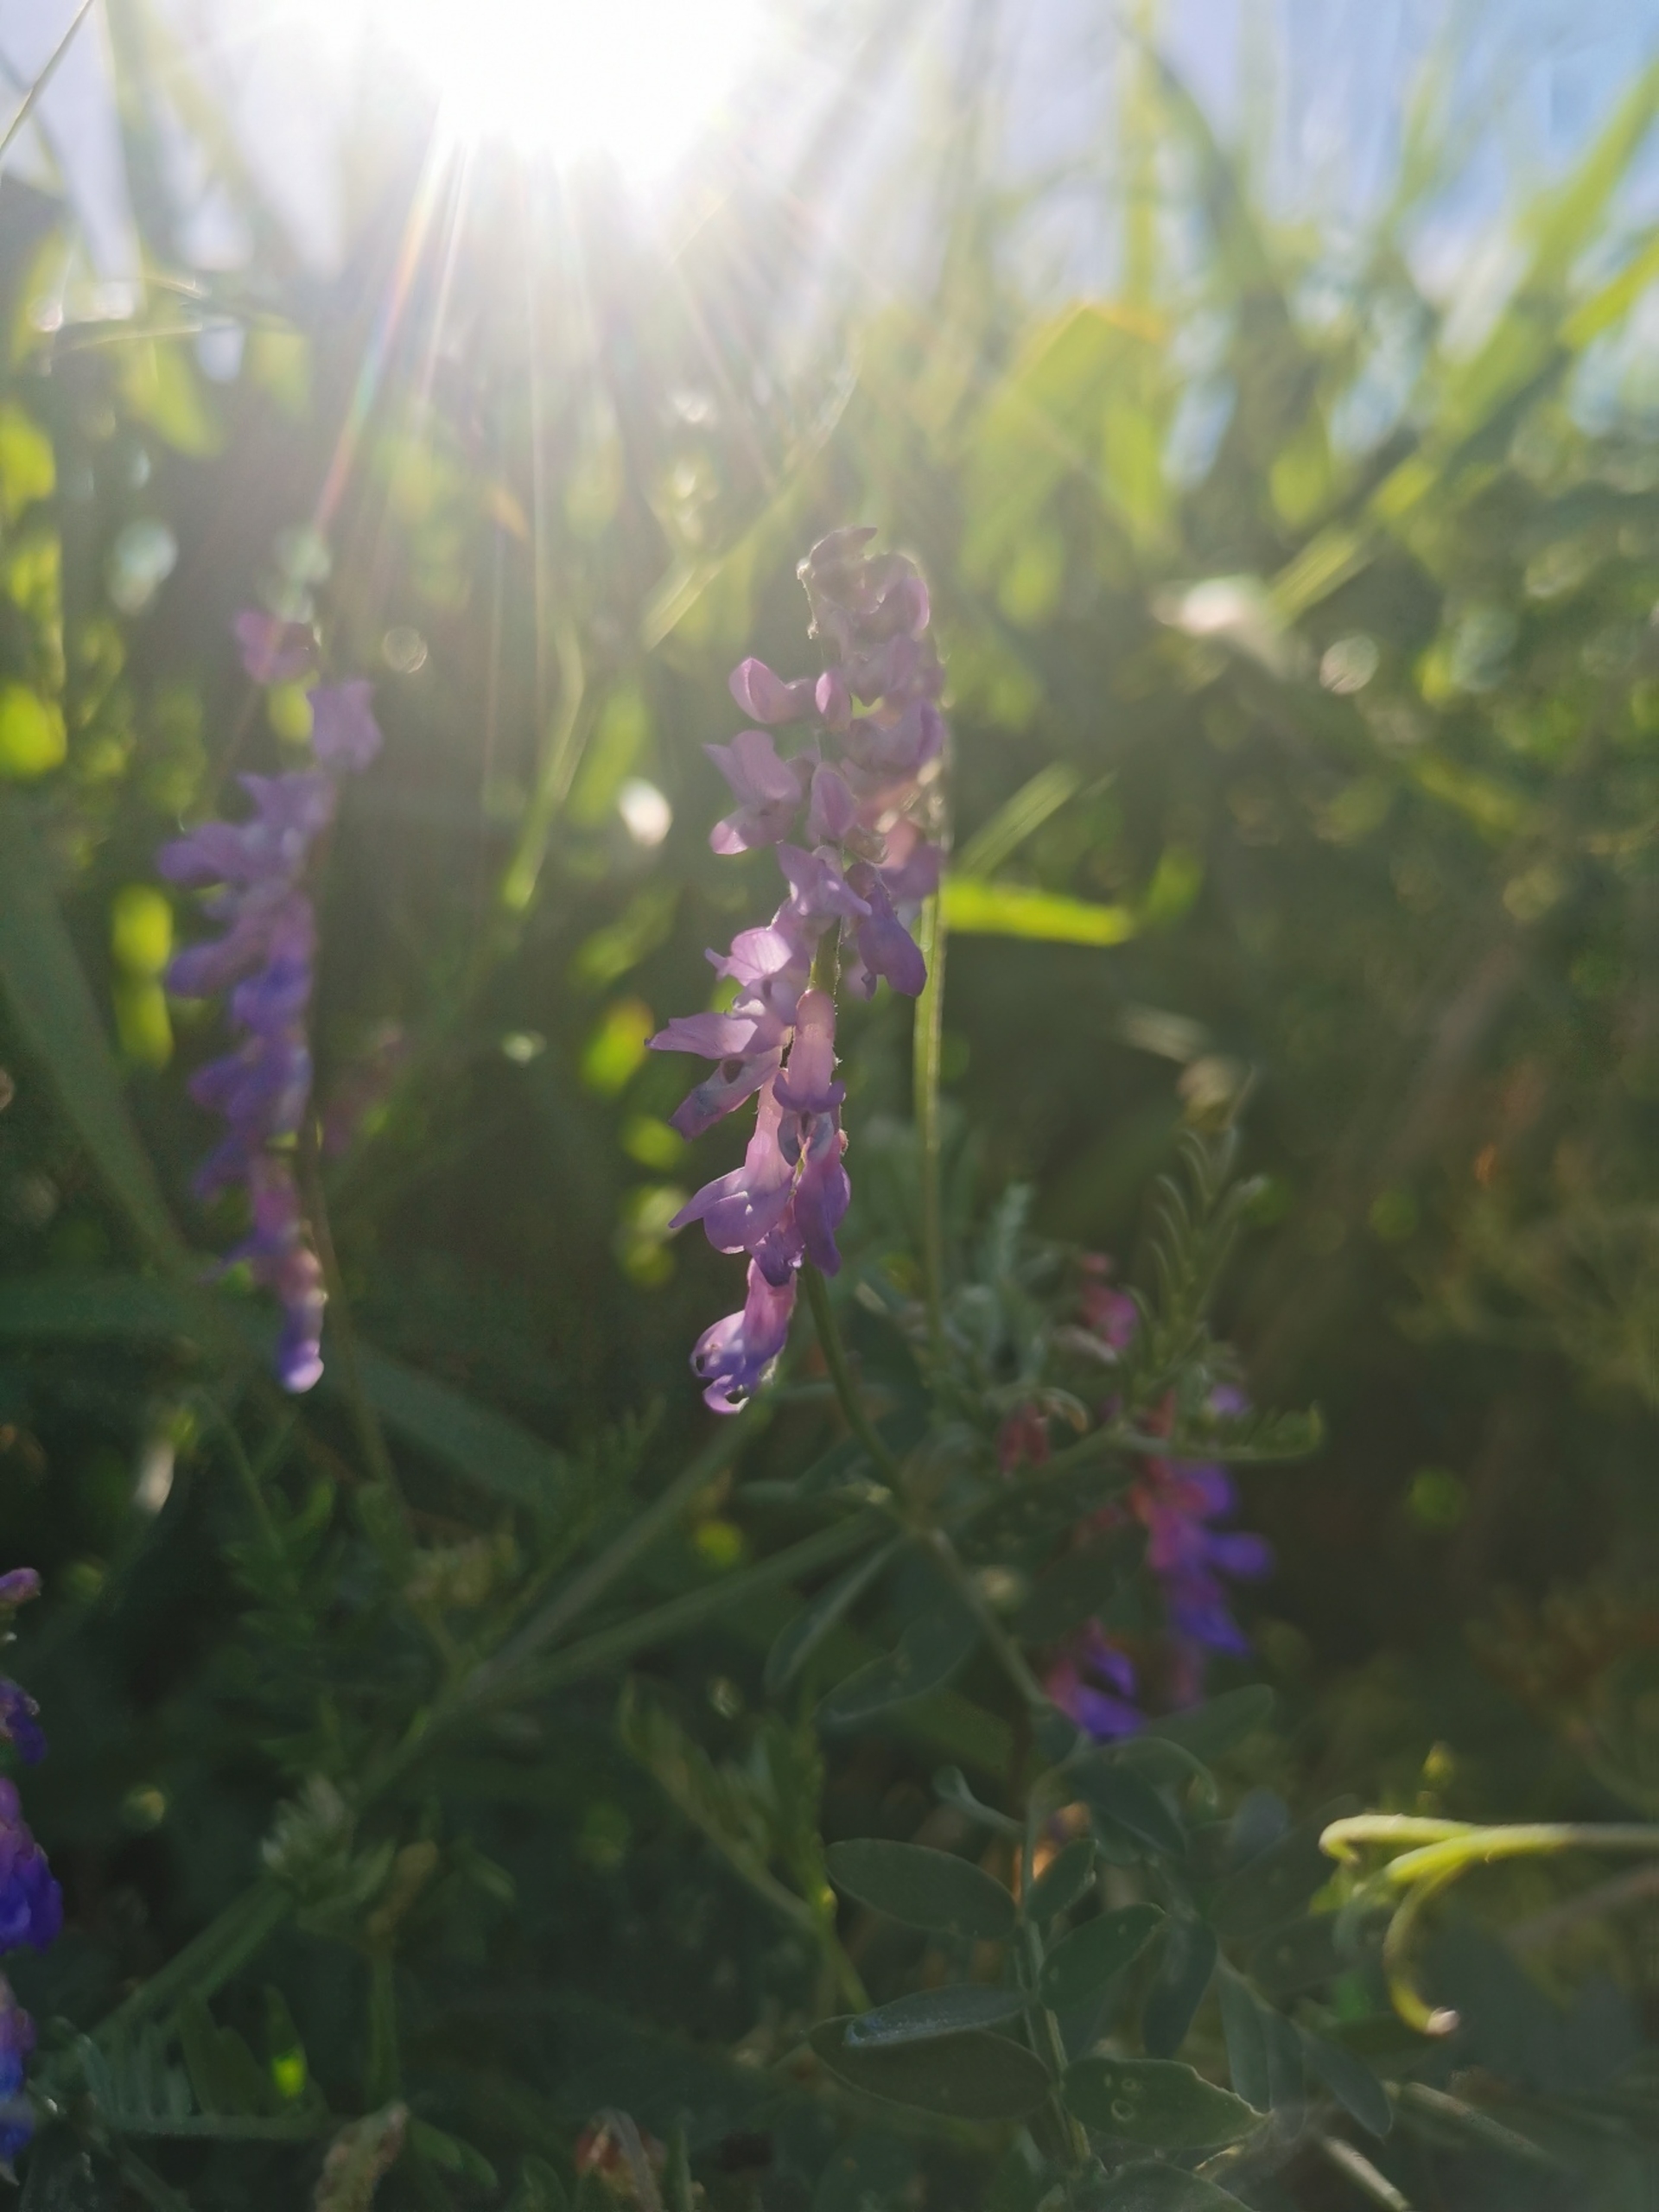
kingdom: Plantae
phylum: Tracheophyta
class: Magnoliopsida
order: Fabales
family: Fabaceae
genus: Vicia
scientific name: Vicia cracca
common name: Muse-vikke
